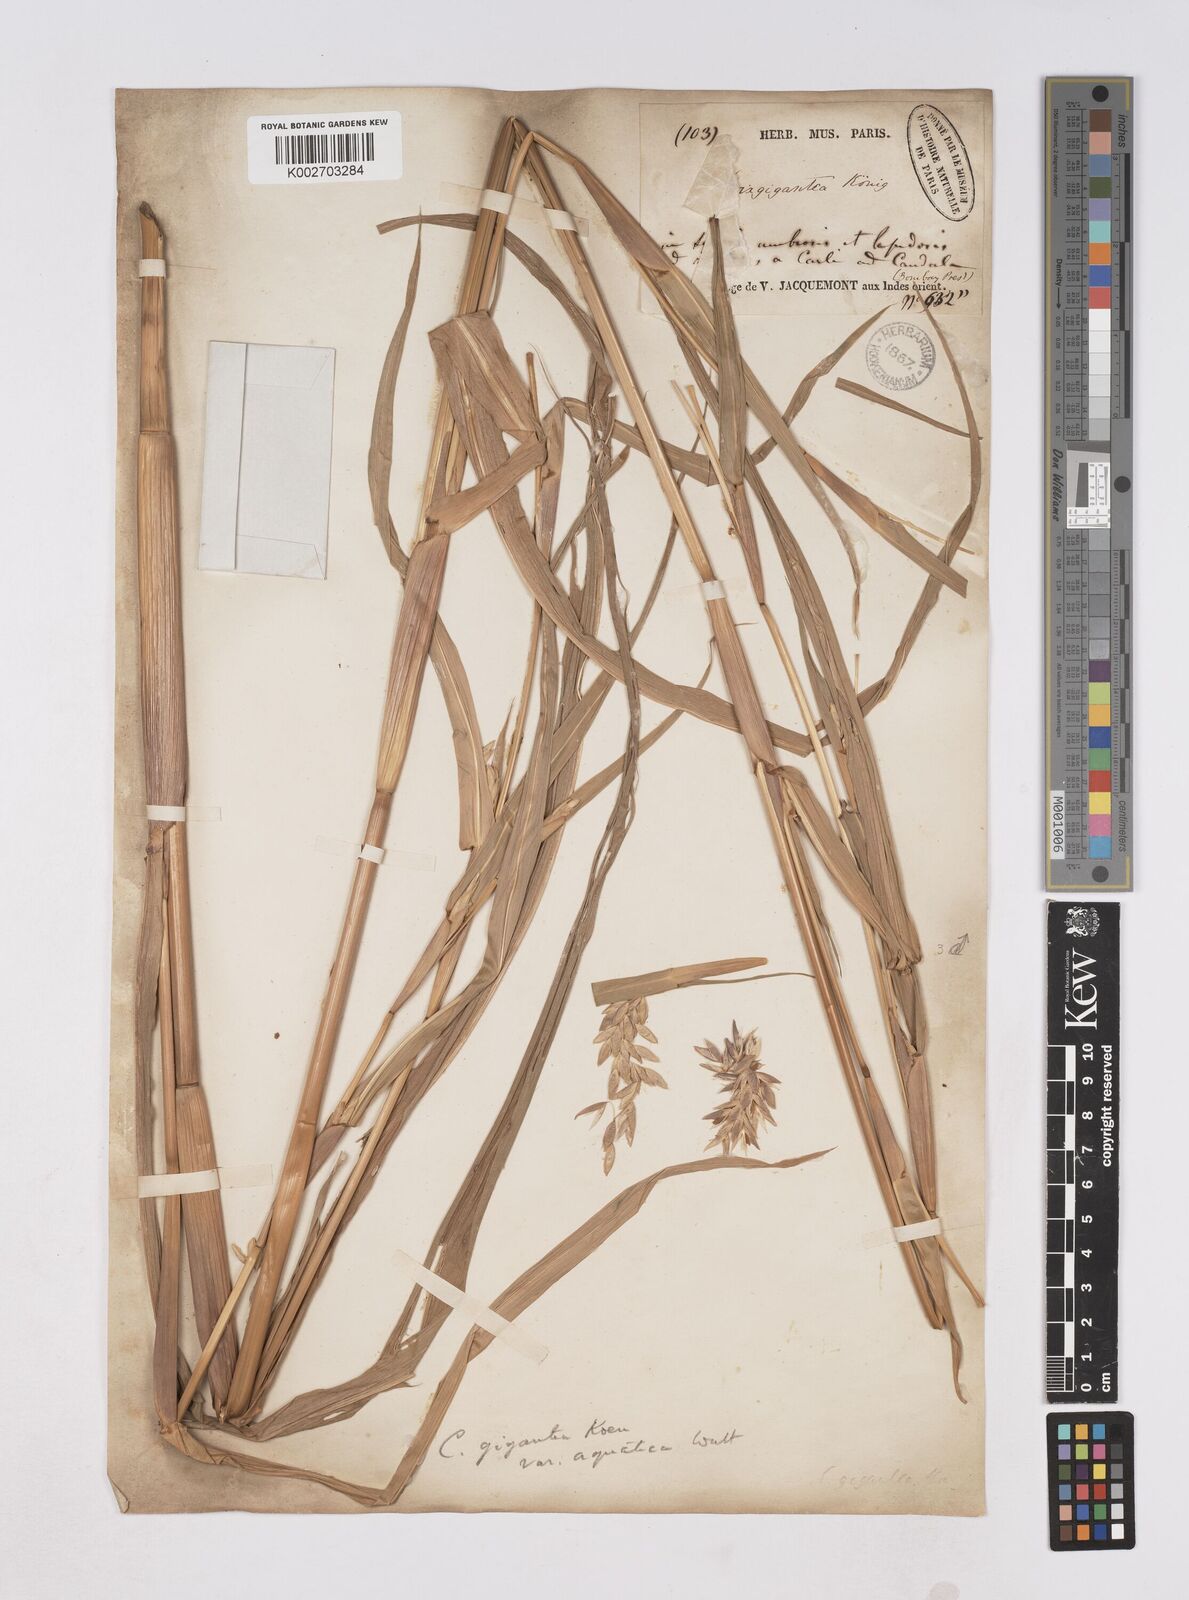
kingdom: Plantae
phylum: Tracheophyta
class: Liliopsida
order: Poales
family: Poaceae
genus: Coix
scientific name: Coix aquatica
